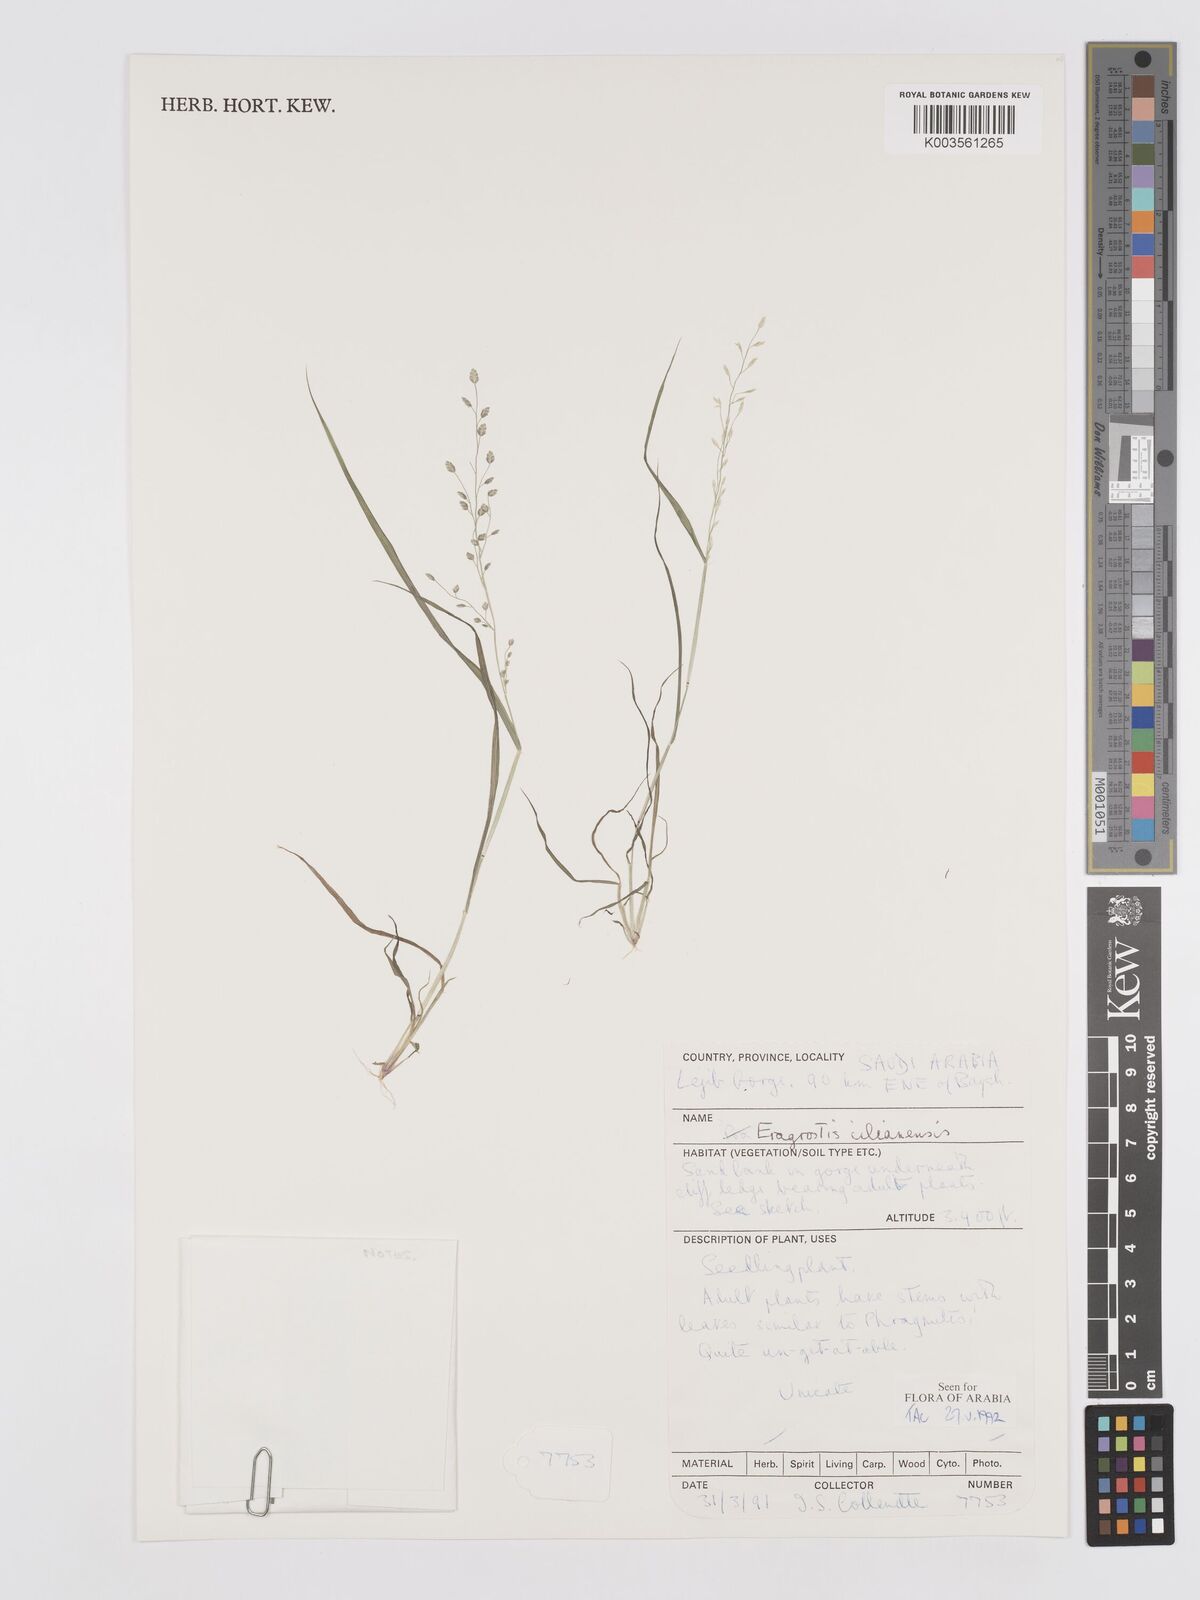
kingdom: Plantae
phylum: Tracheophyta
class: Liliopsida
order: Poales
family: Poaceae
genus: Eragrostis
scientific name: Eragrostis cilianensis
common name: Stinkgrass
